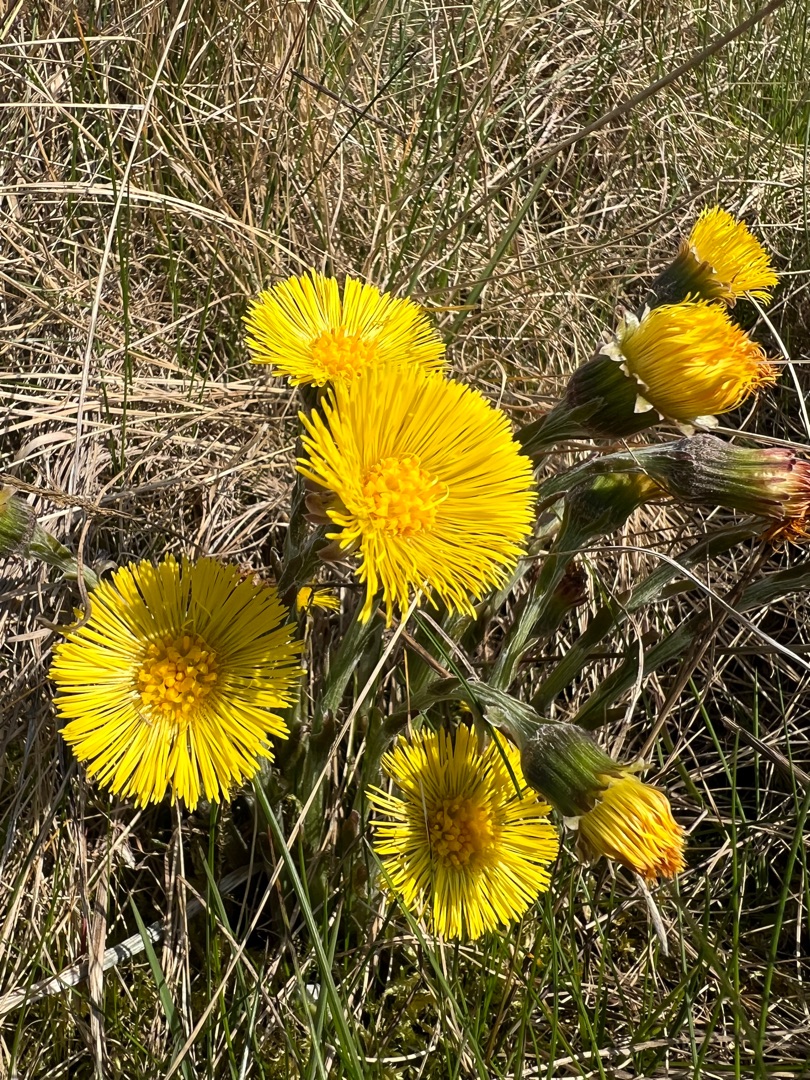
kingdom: Plantae
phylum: Tracheophyta
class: Magnoliopsida
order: Asterales
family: Asteraceae
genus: Tussilago
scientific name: Tussilago farfara
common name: Følfod
